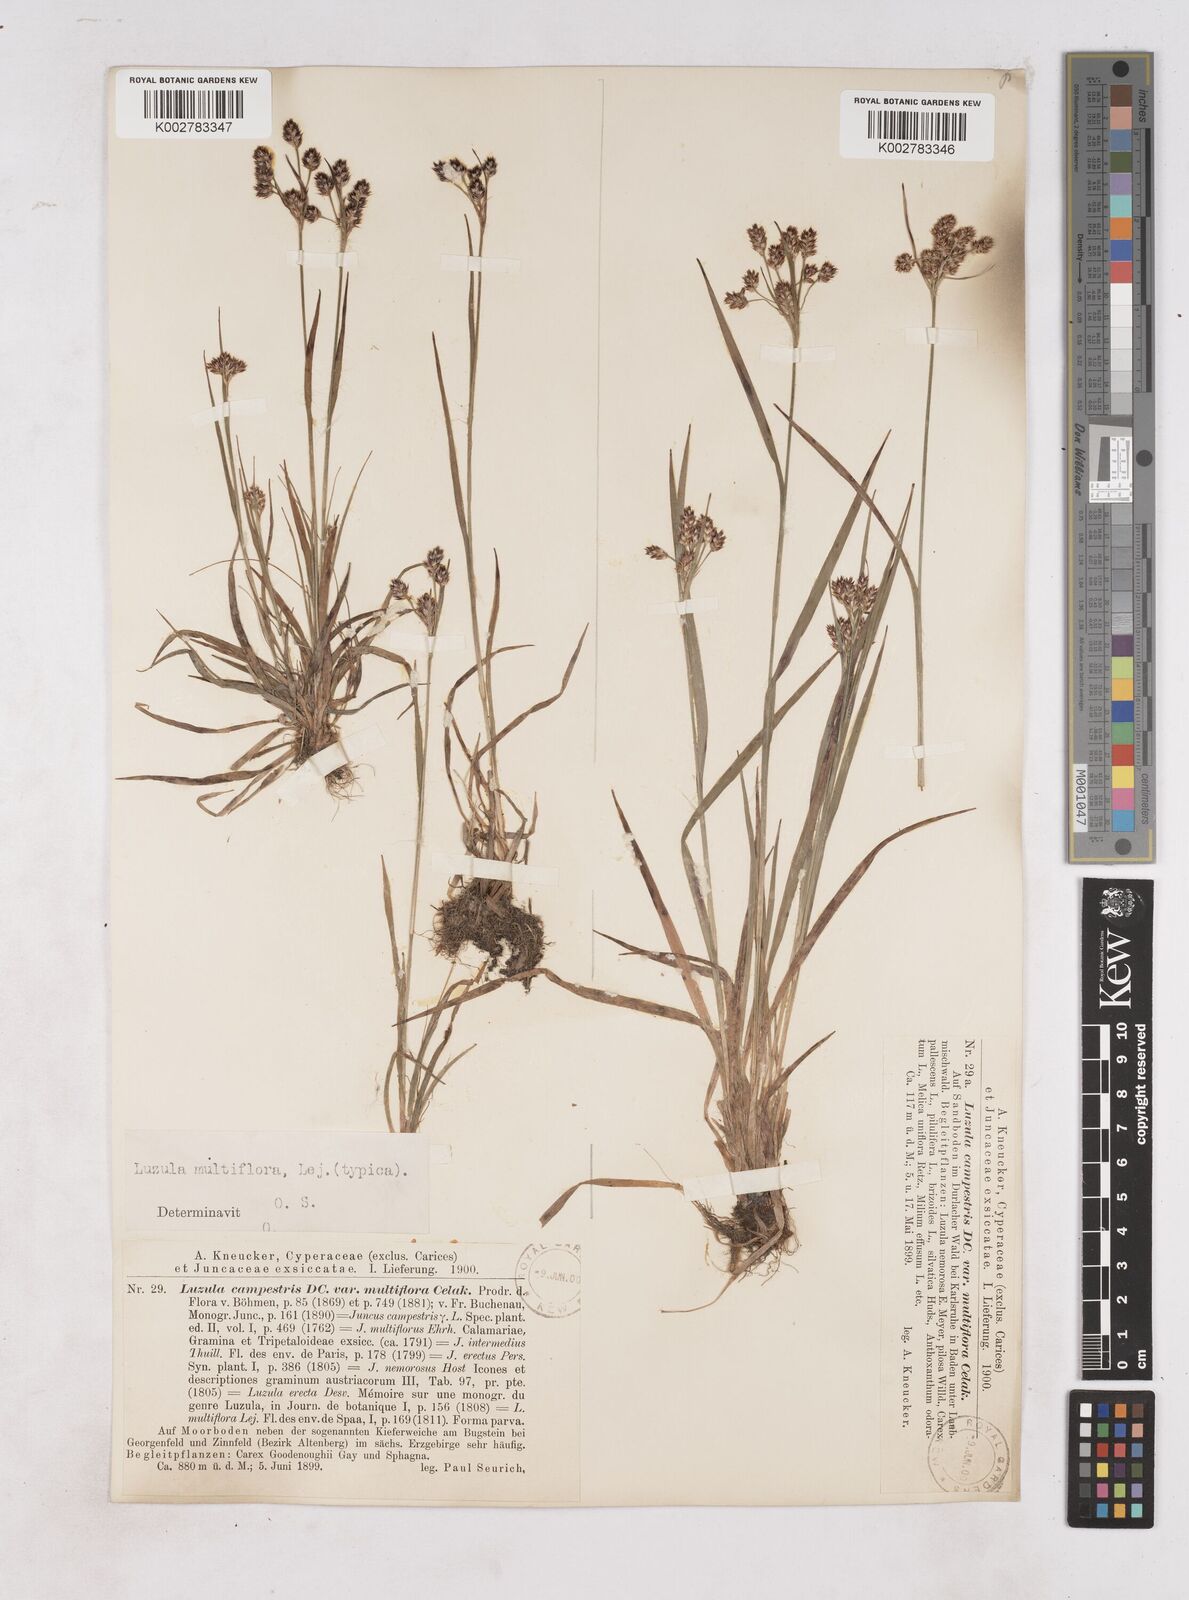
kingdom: Plantae
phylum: Tracheophyta
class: Liliopsida
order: Poales
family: Juncaceae
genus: Luzula
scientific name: Luzula multiflora
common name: Heath wood-rush
